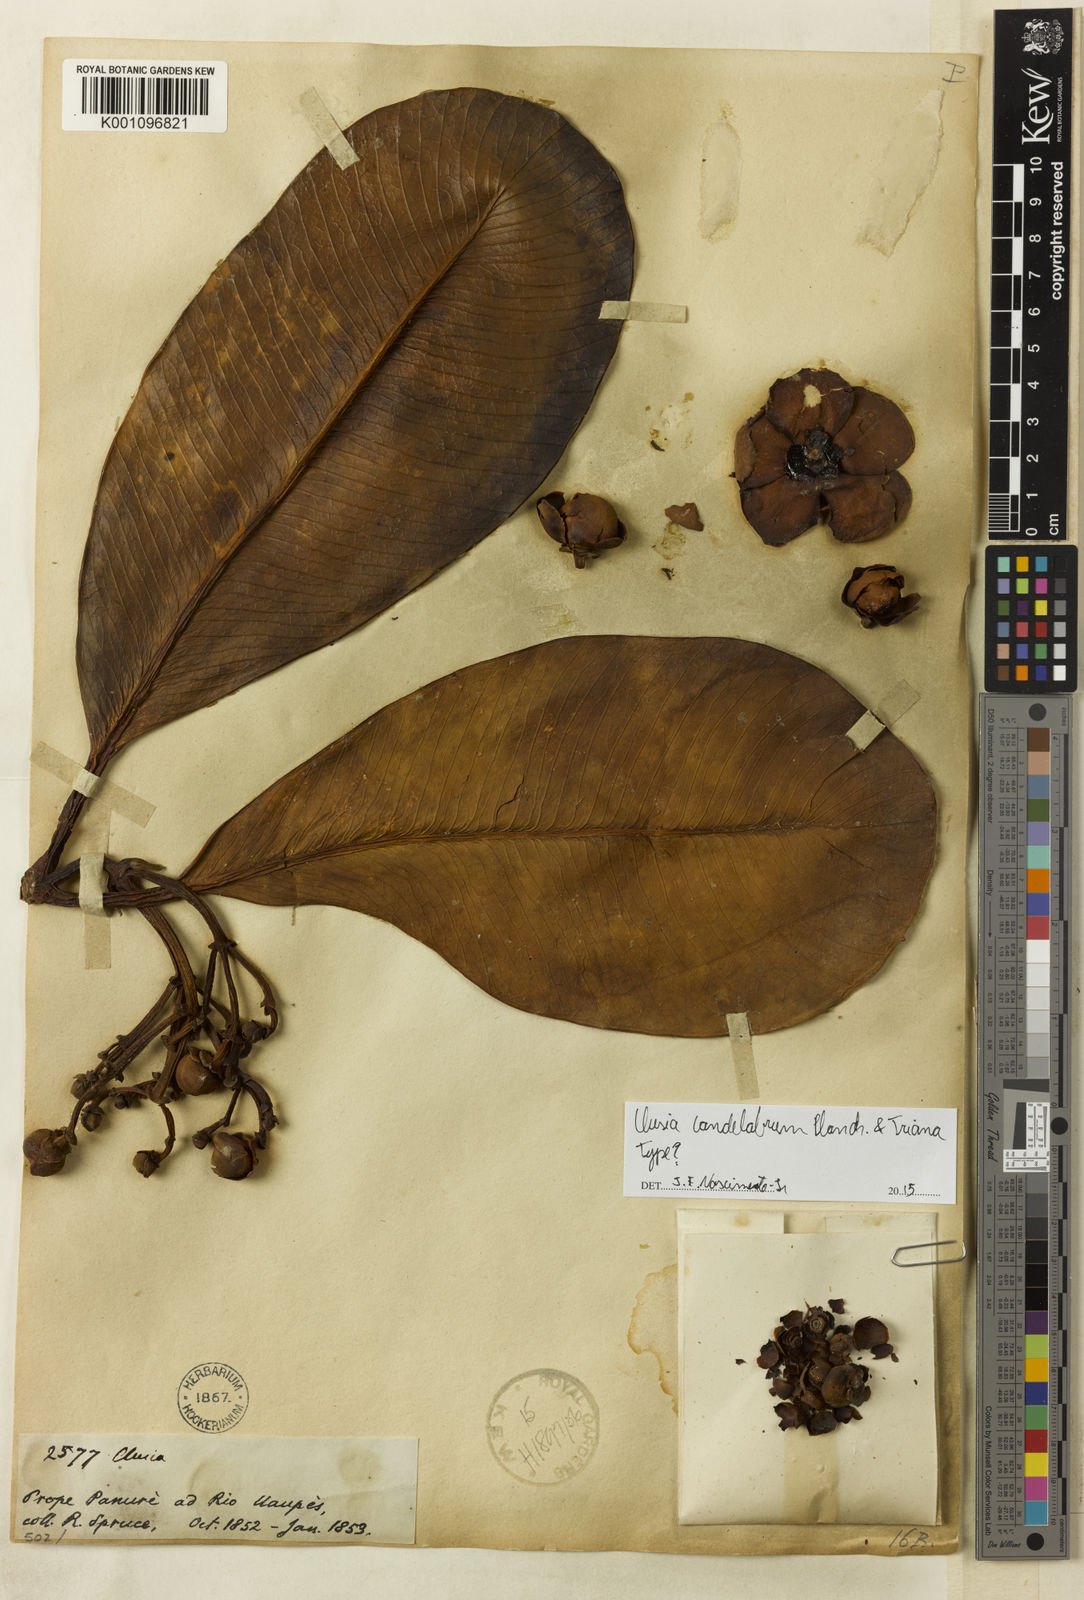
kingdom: Plantae
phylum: Tracheophyta
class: Magnoliopsida
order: Malpighiales
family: Clusiaceae
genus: Clusia
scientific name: Clusia candelabrum
